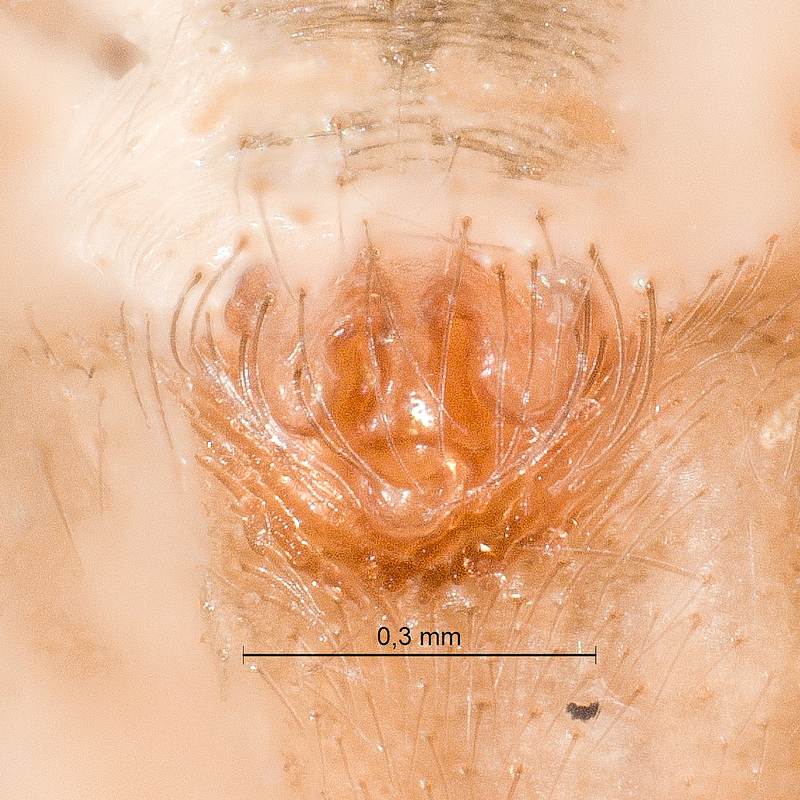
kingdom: Animalia
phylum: Arthropoda
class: Arachnida
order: Araneae
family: Linyphiidae
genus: Bolyphantes
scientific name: Bolyphantes alticeps
